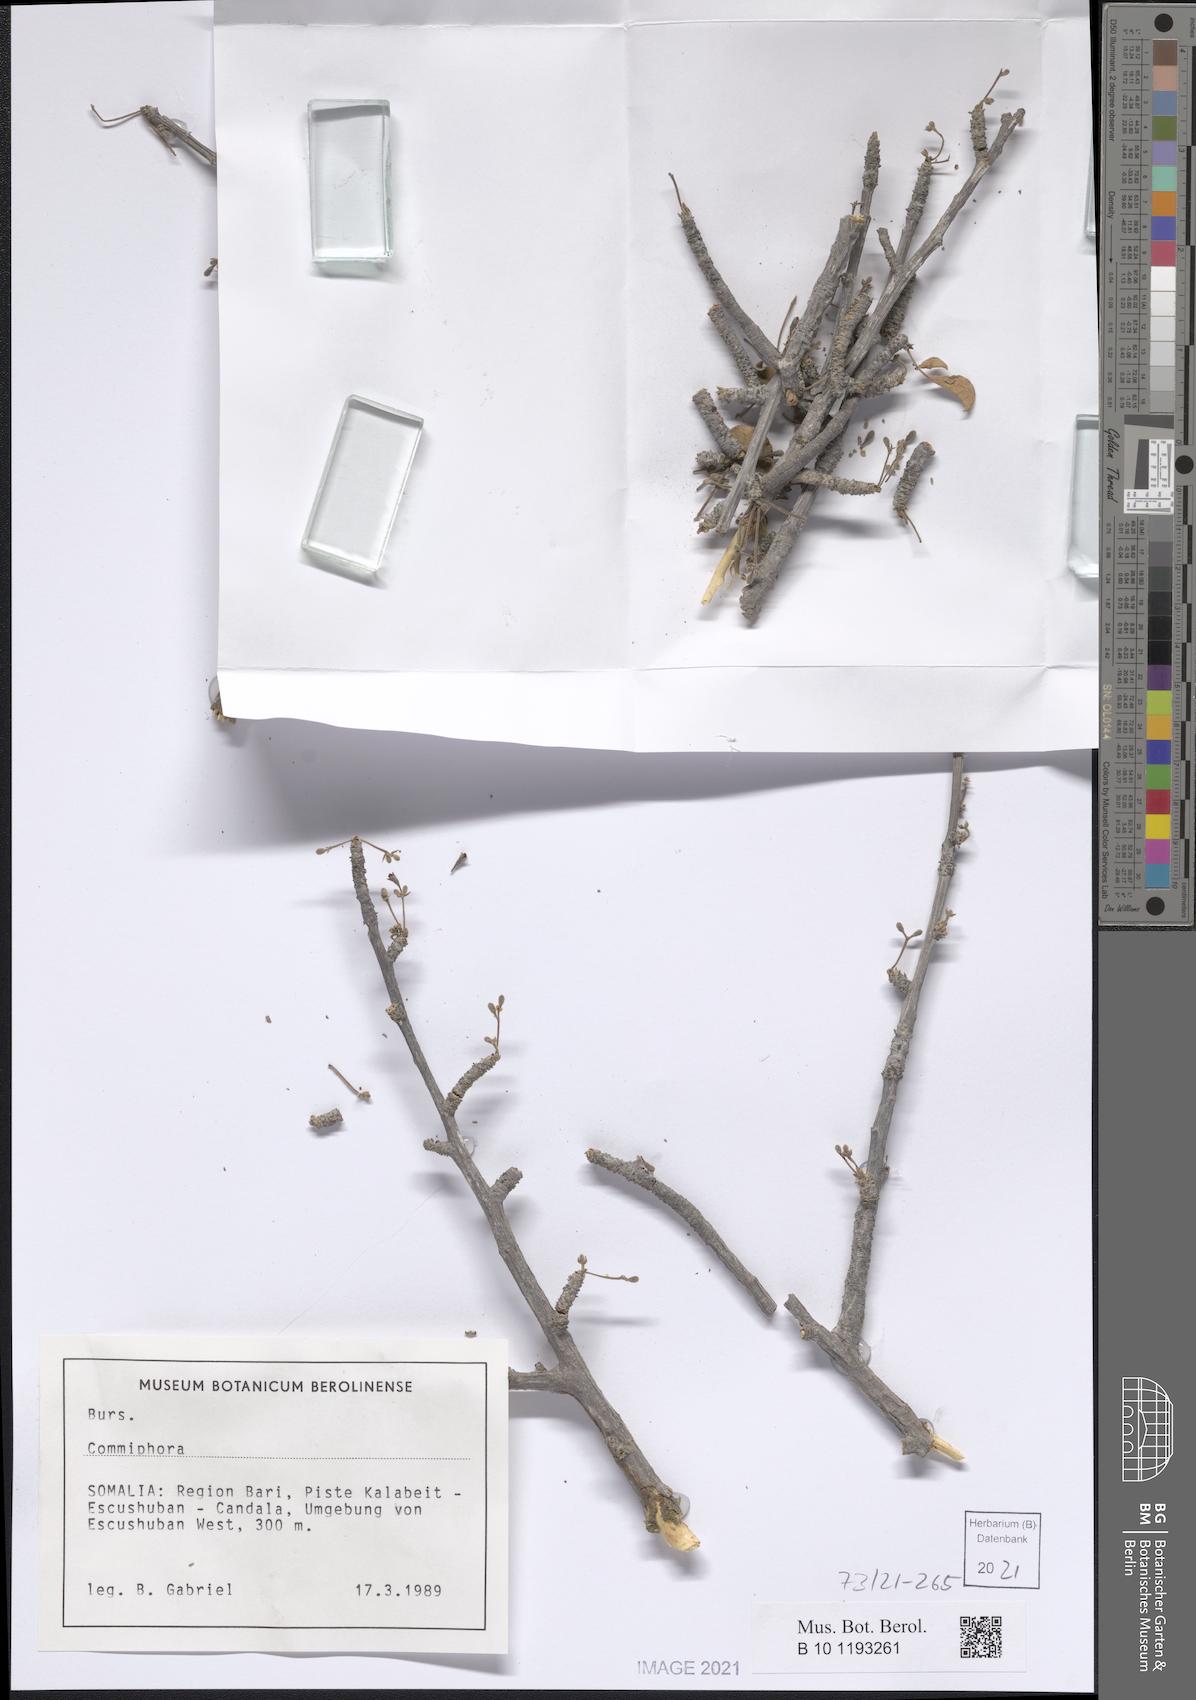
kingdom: Plantae
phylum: Tracheophyta
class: Magnoliopsida
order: Sapindales
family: Burseraceae
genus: Commiphora
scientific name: Commiphora guidottii
